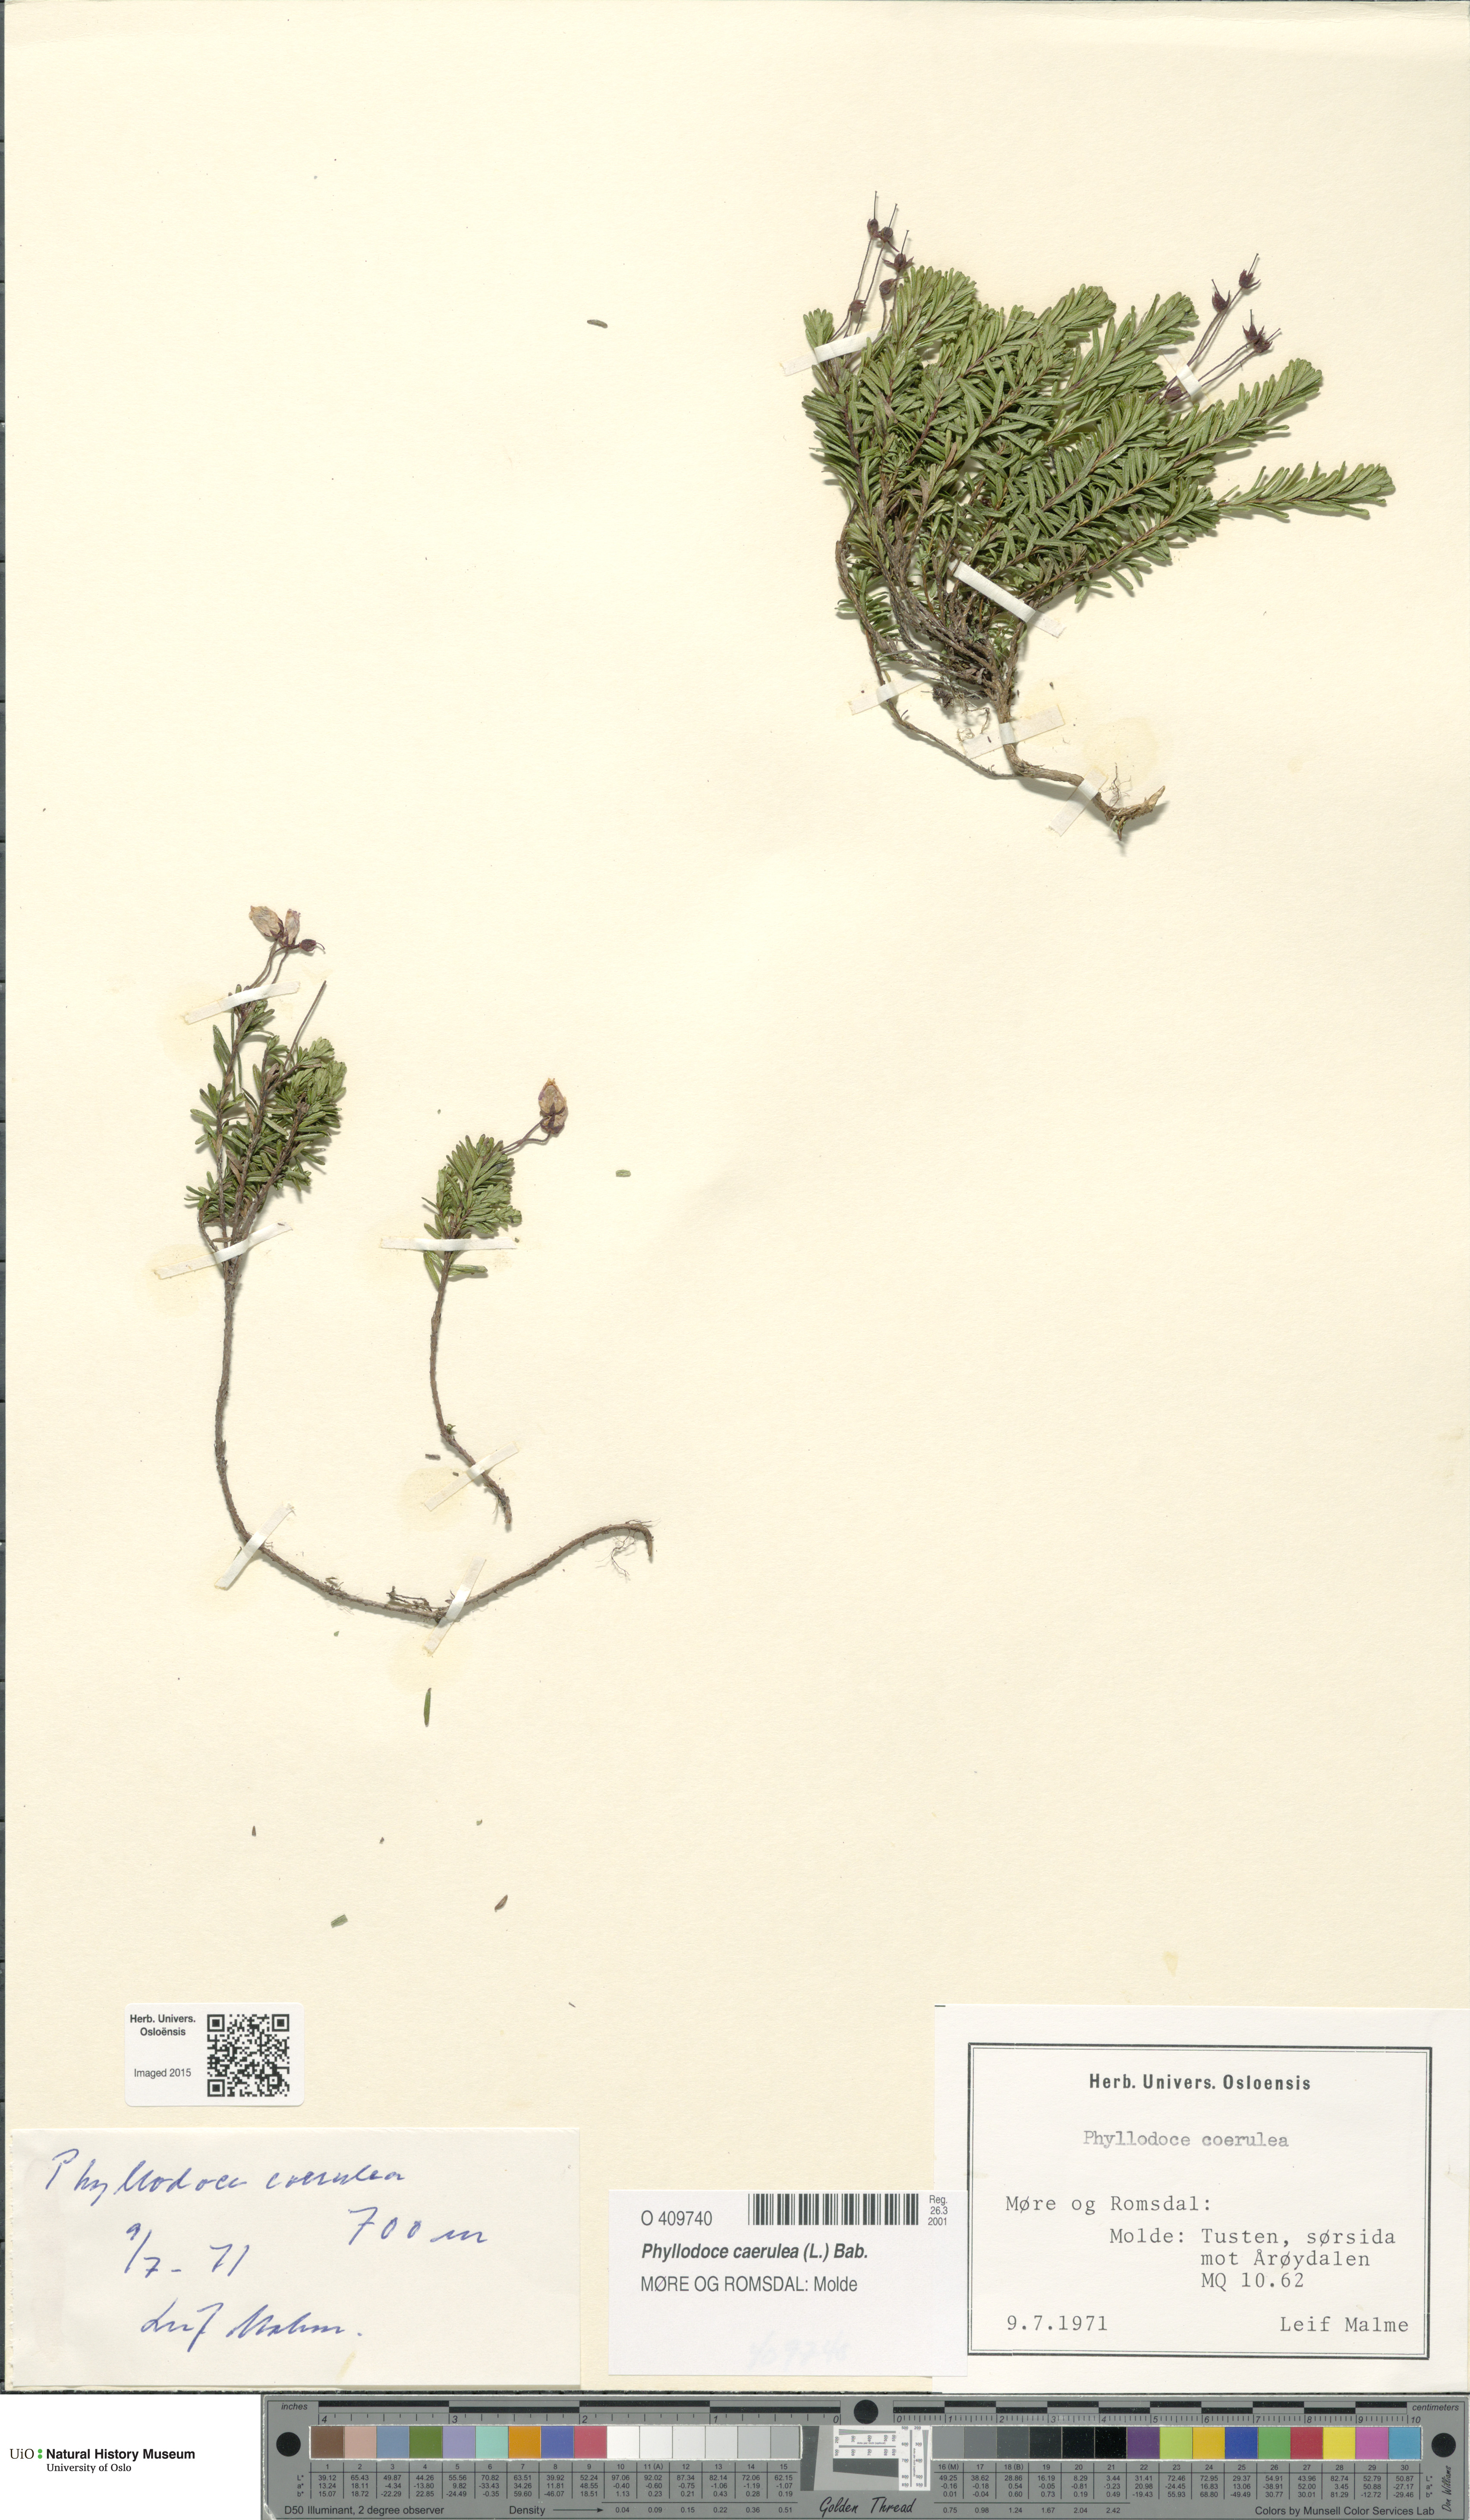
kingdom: Plantae
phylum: Tracheophyta
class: Magnoliopsida
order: Ericales
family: Ericaceae
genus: Phyllodoce
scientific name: Phyllodoce caerulea
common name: Blue heath
